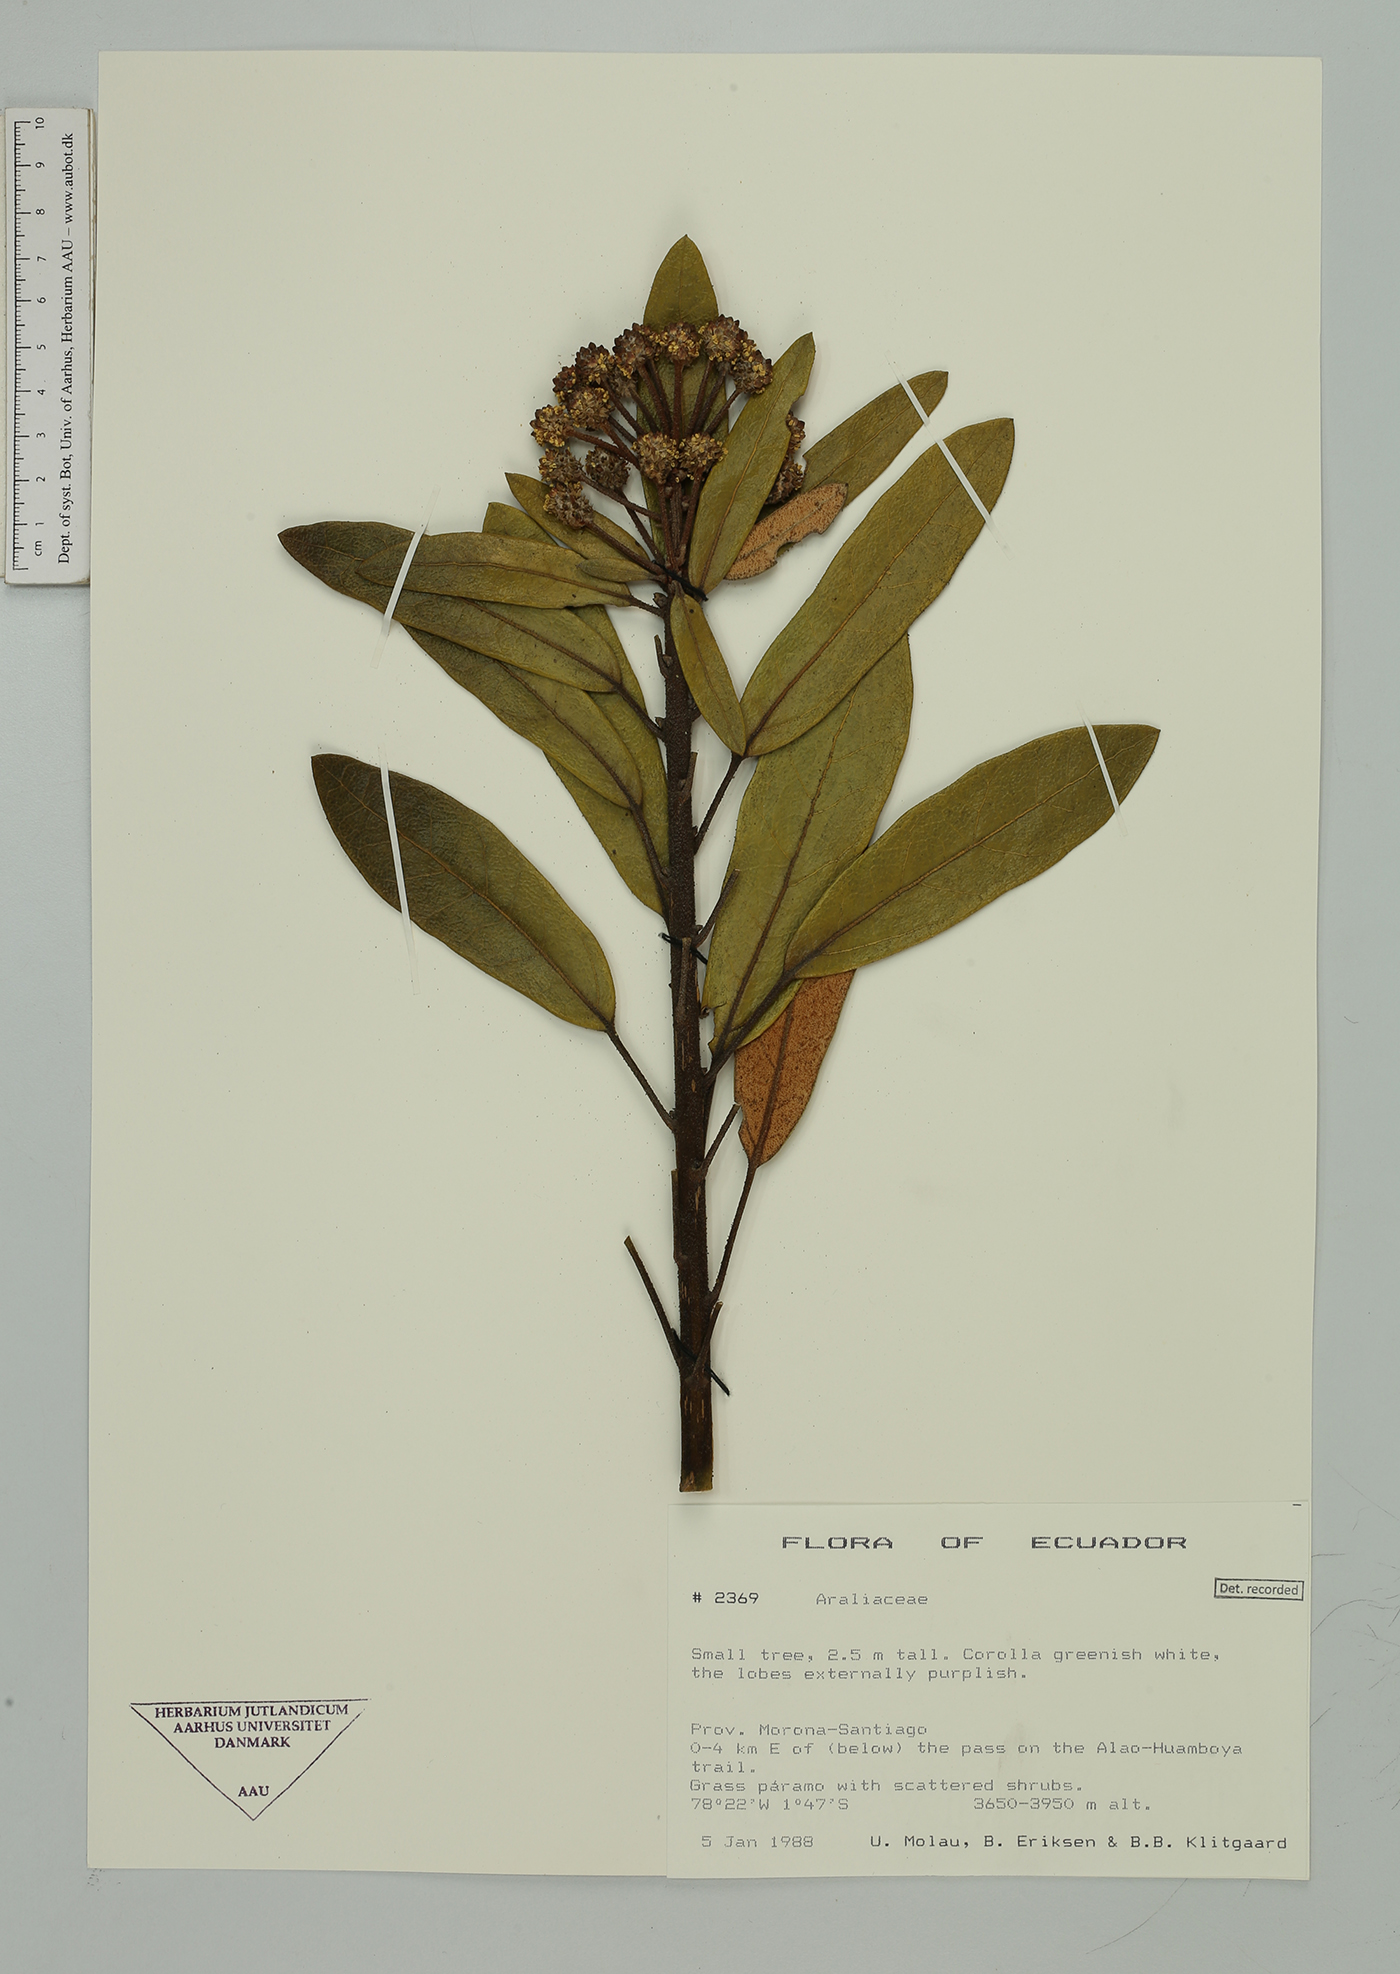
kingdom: Plantae
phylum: Tracheophyta
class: Magnoliopsida
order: Apiales
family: Araliaceae
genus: Oreopanax
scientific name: Oreopanax
